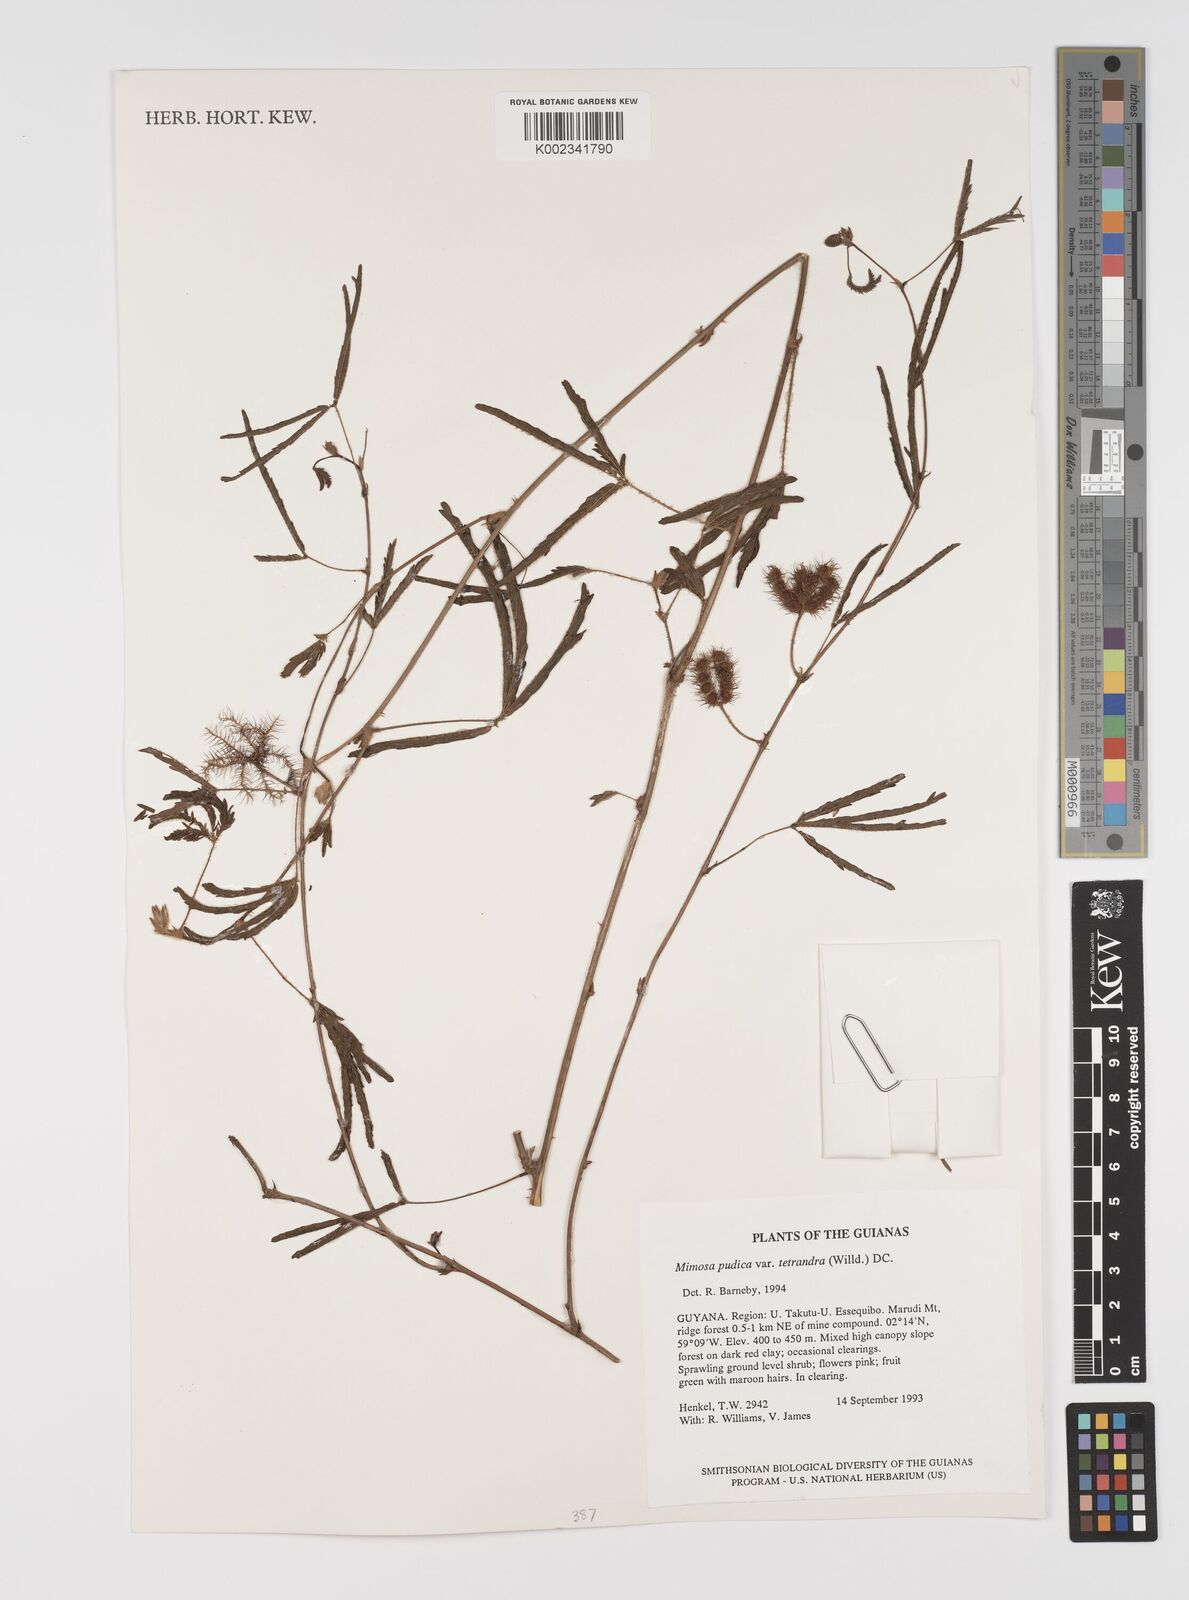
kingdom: Plantae
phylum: Tracheophyta
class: Magnoliopsida
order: Fabales
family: Fabaceae
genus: Mimosa
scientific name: Mimosa pudica
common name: Sensitive plant
